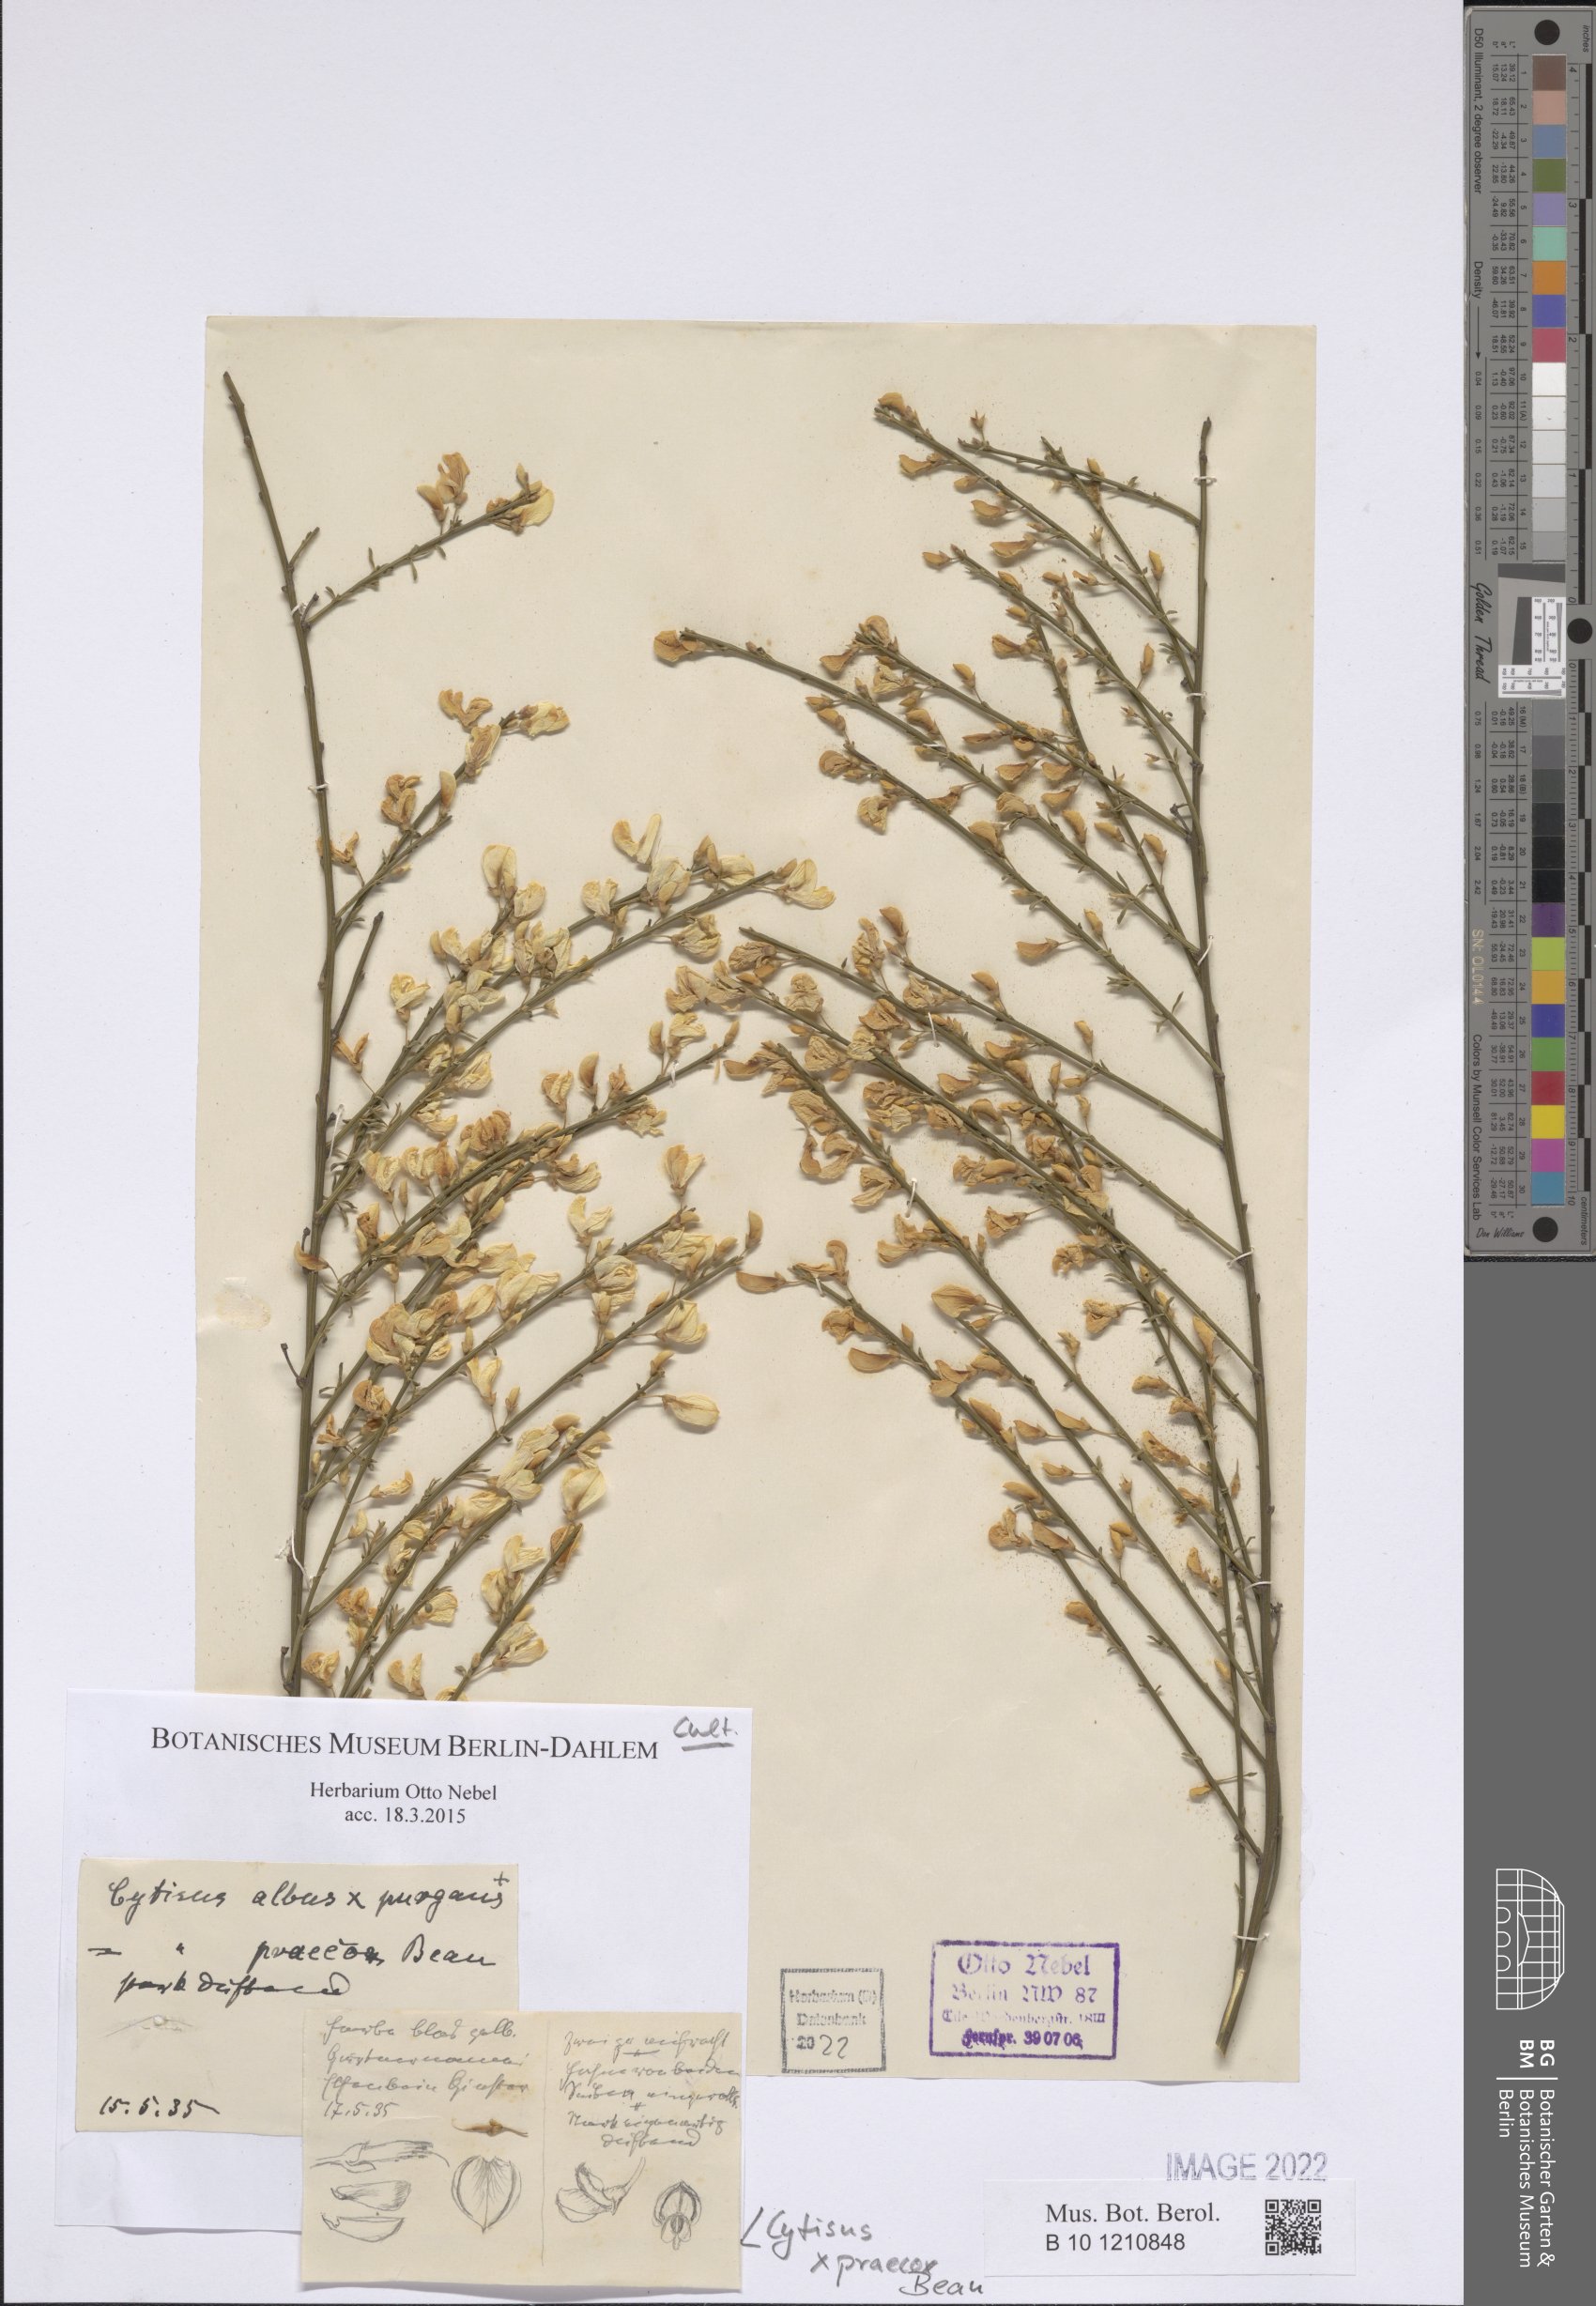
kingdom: Plantae
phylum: Tracheophyta
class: Magnoliopsida
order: Fabales
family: Fabaceae
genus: Cytisus
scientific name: Cytisus praecox
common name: Warminster broom
